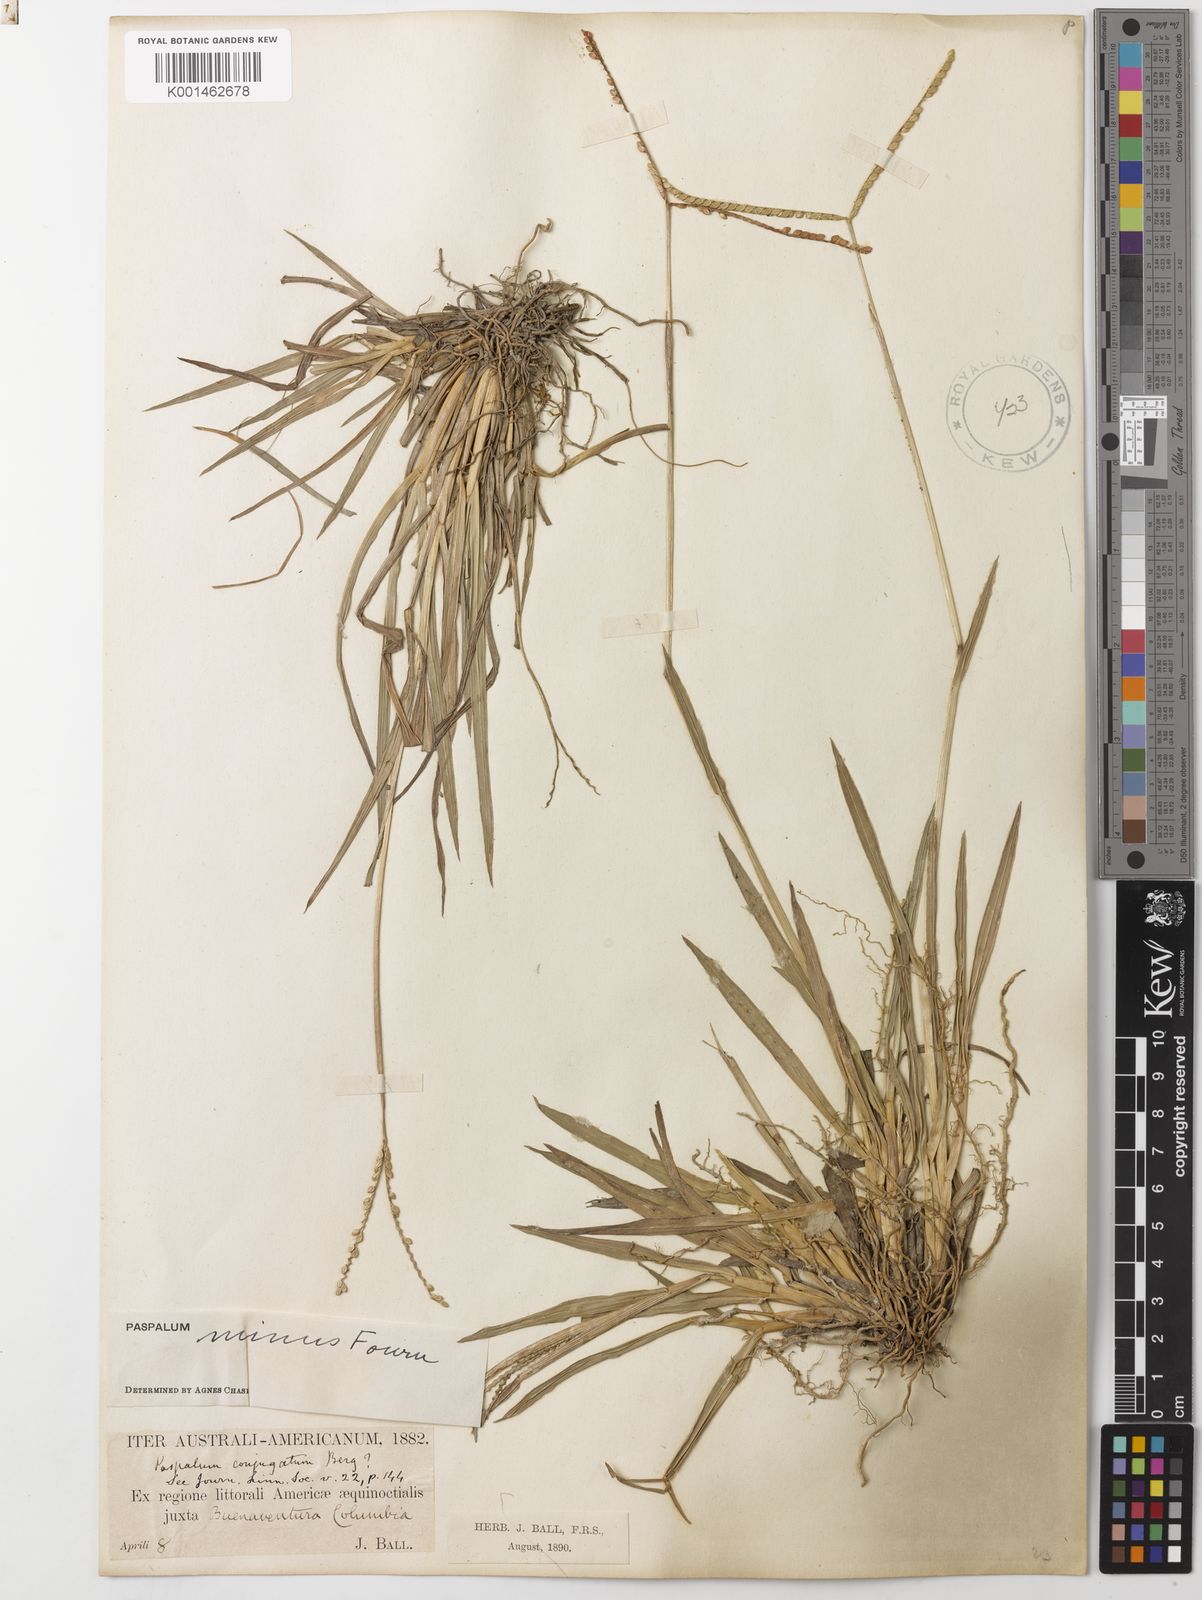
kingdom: Plantae
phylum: Tracheophyta
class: Liliopsida
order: Poales
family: Poaceae
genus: Paspalum
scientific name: Paspalum minus
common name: Matted paspalum
